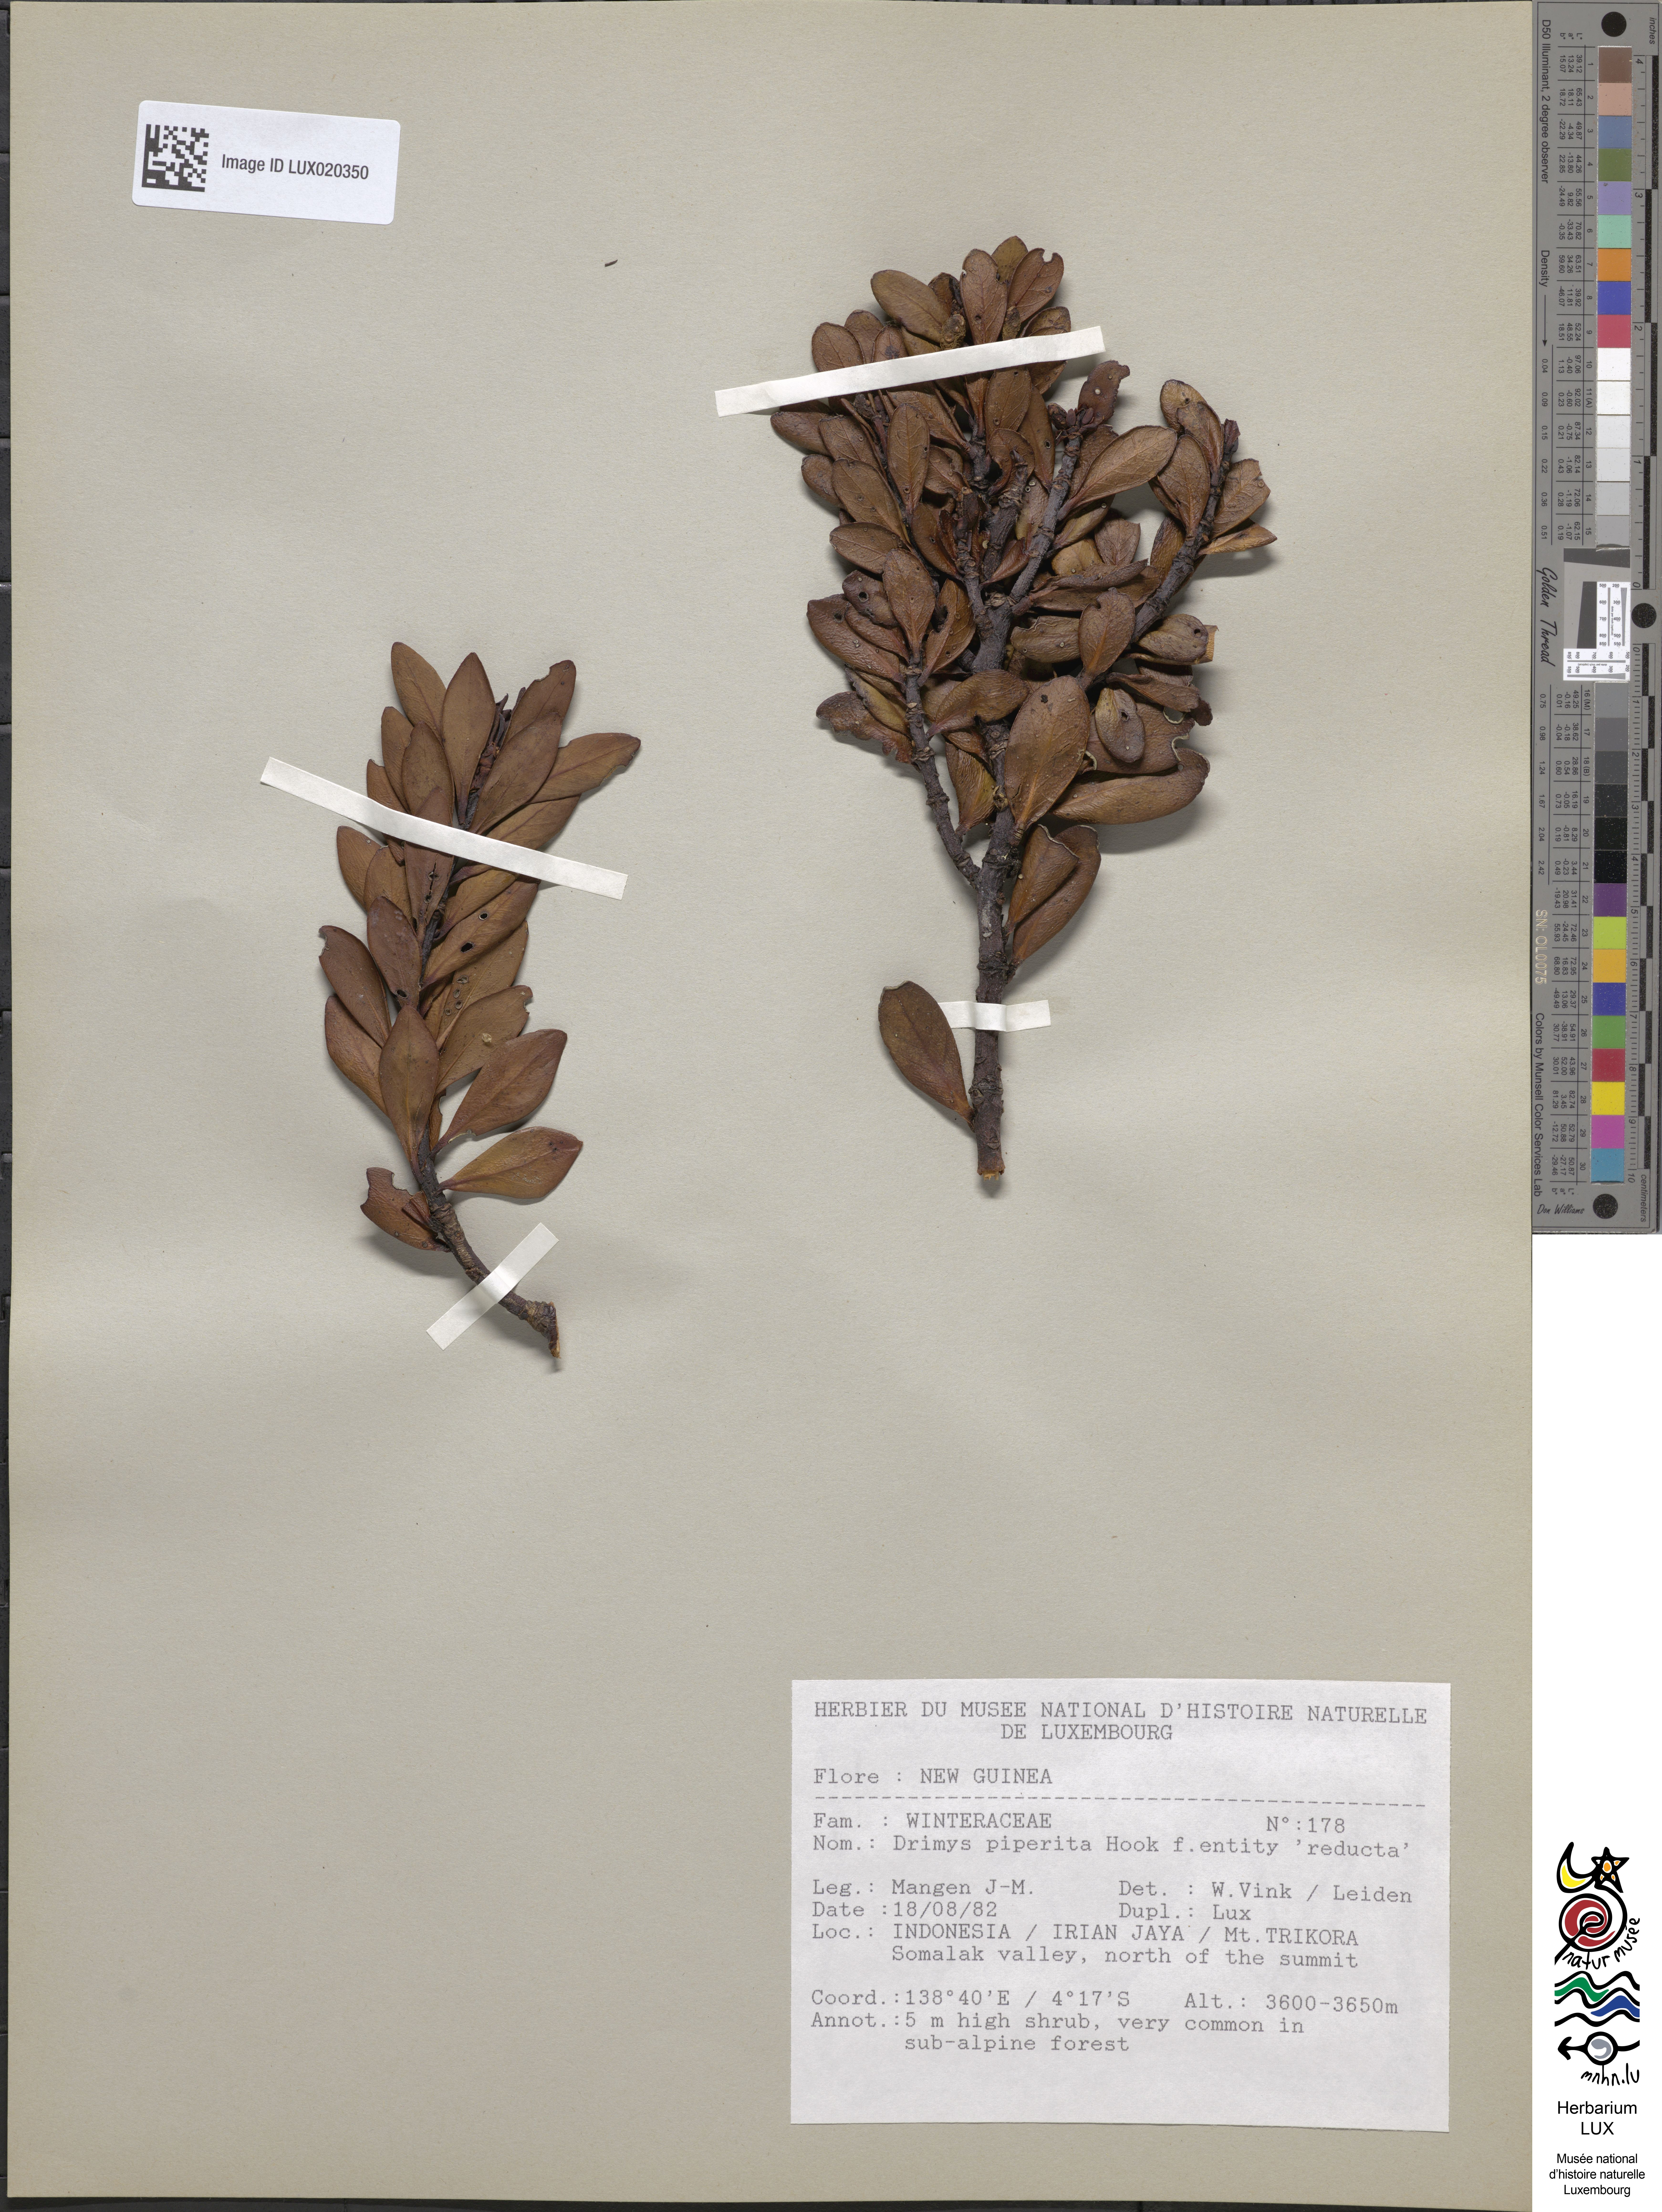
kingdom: Plantae
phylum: Tracheophyta
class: Magnoliopsida
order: Canellales
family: Winteraceae
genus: Drimys
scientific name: Drimys piperita
